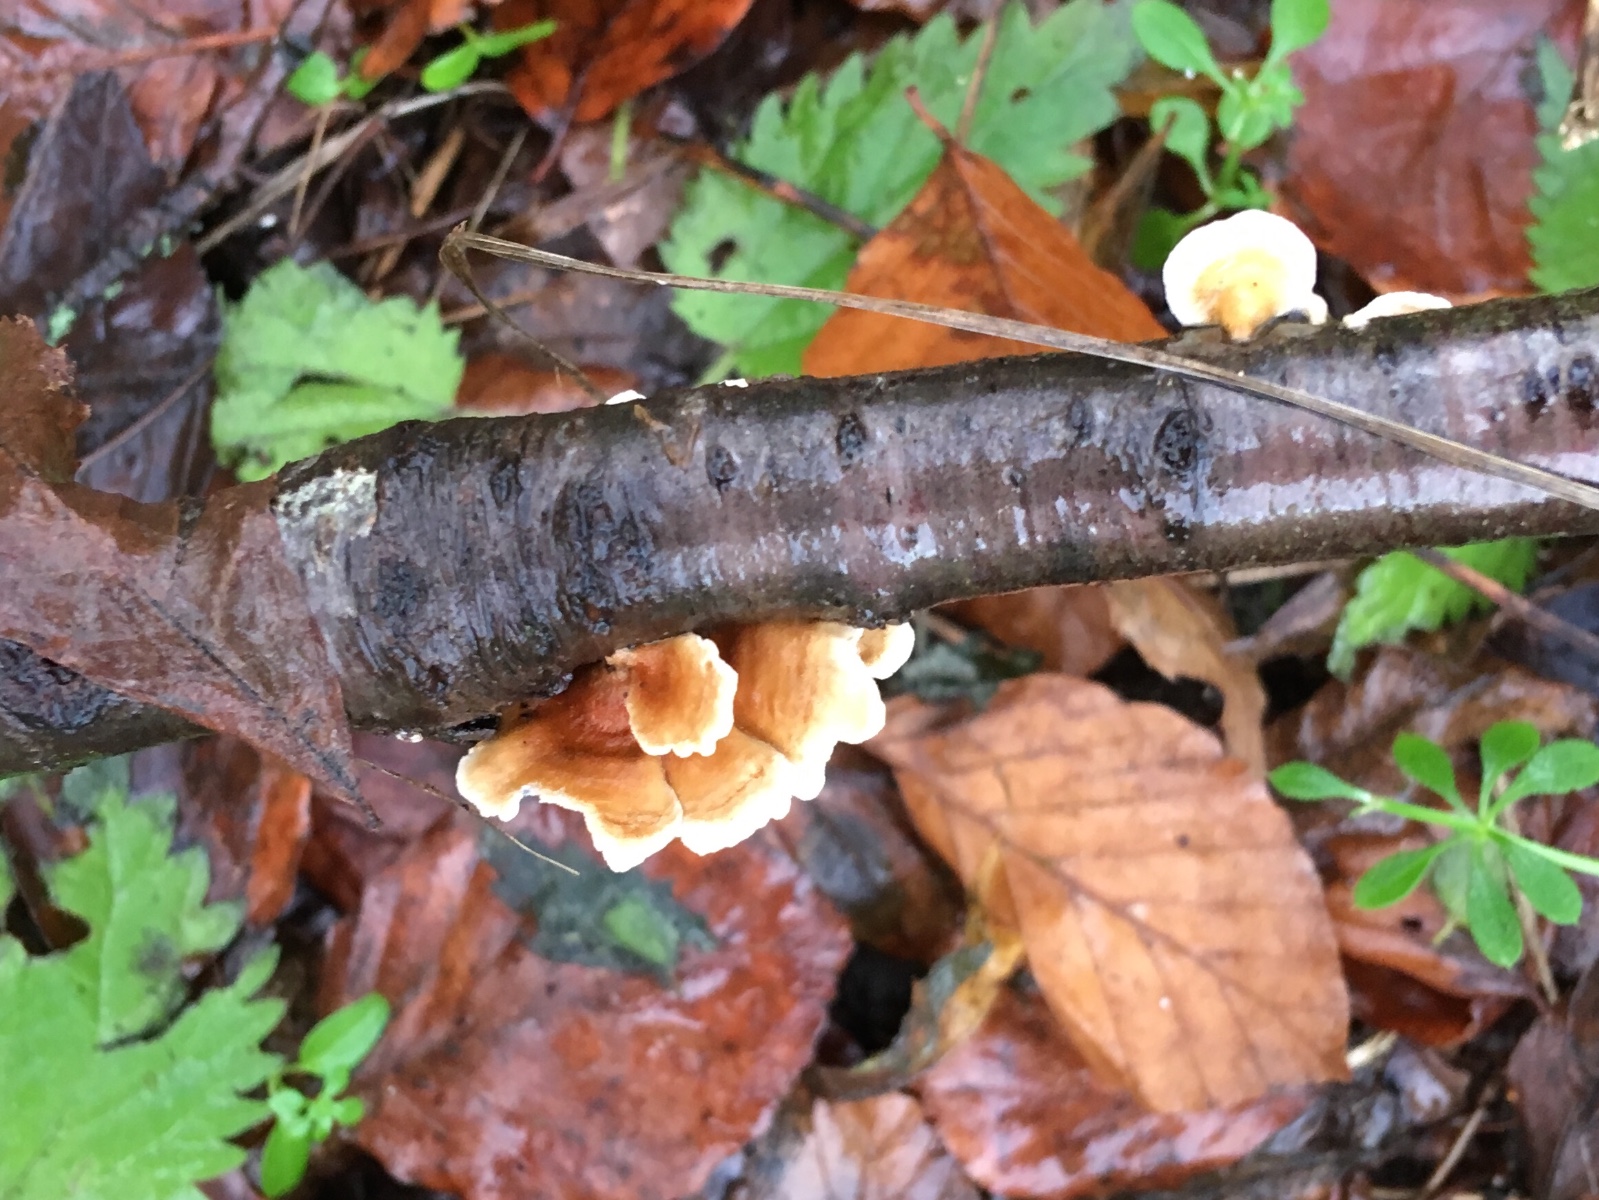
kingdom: Fungi
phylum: Basidiomycota
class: Agaricomycetes
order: Amylocorticiales
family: Amylocorticiaceae
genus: Plicaturopsis
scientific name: Plicaturopsis crispa
